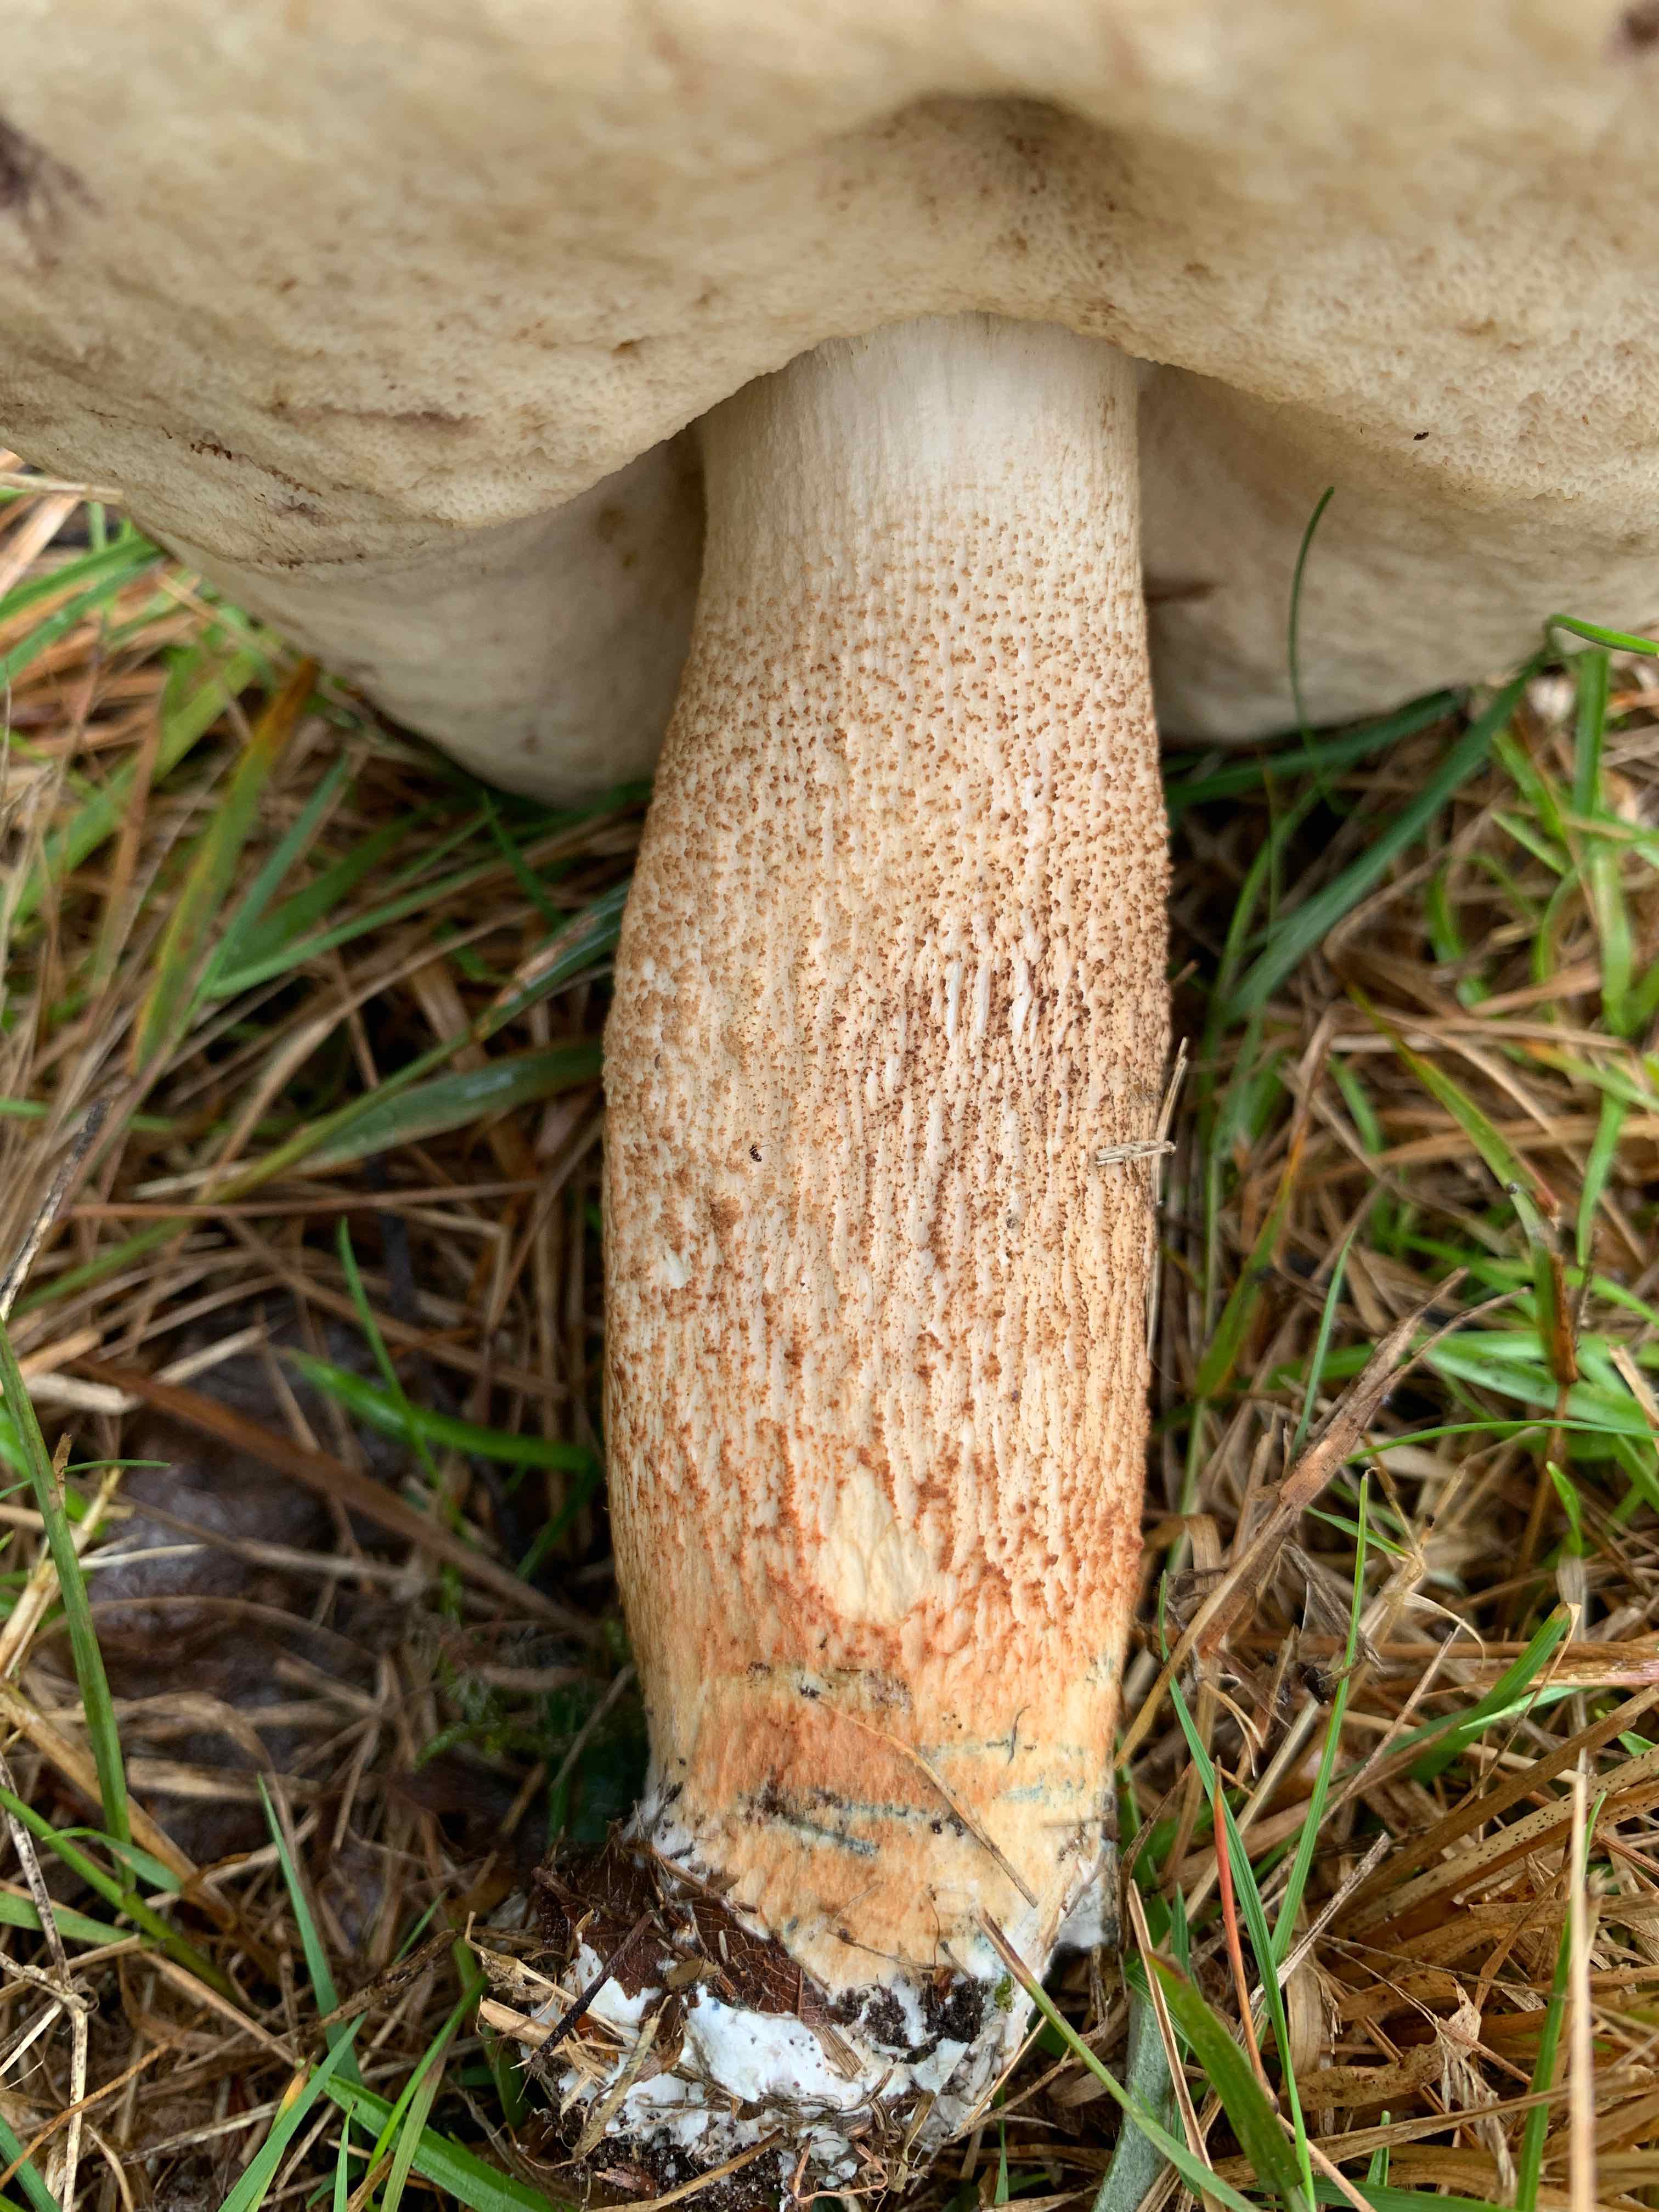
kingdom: Fungi
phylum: Basidiomycota
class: Agaricomycetes
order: Boletales
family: Boletaceae
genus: Leccinum
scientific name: Leccinum albostipitatum
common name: aspe-skælrørhat
